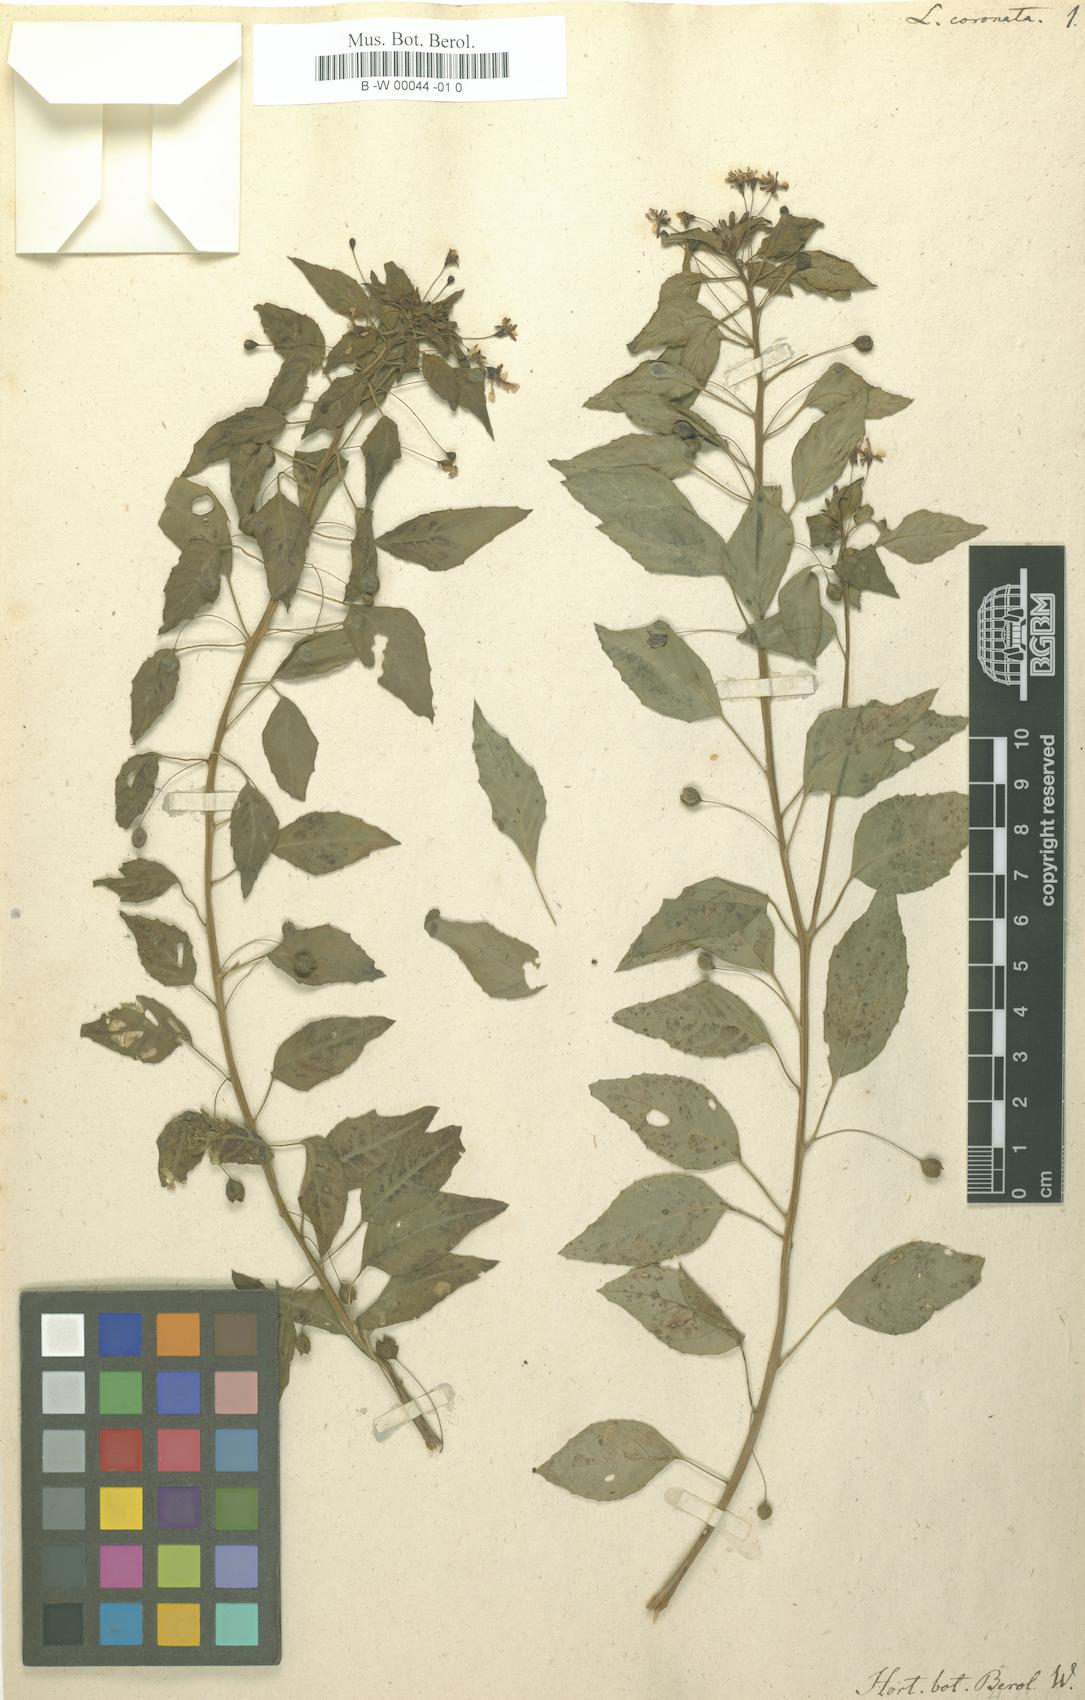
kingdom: Plantae
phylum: Tracheophyta
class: Magnoliopsida
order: Myrtales
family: Onagraceae
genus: Lopezia
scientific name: Lopezia racemosa
